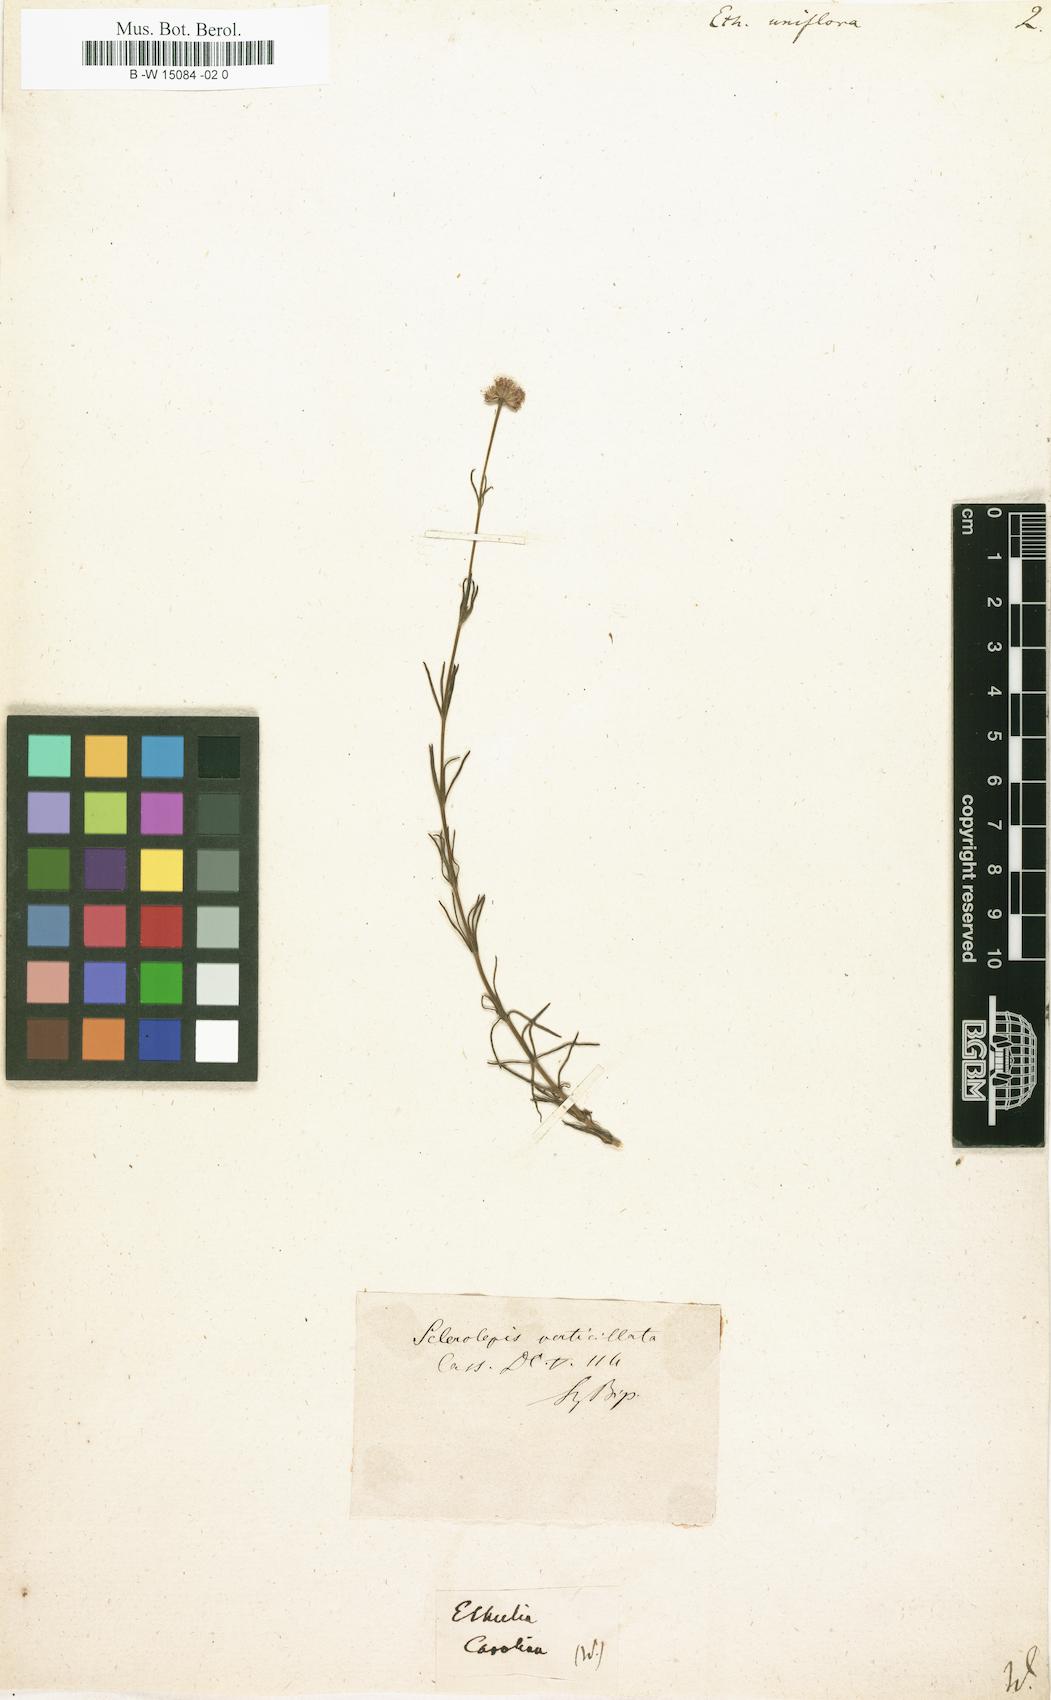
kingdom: Plantae
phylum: Tracheophyta
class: Magnoliopsida
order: Asterales
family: Asteraceae
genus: Sclerolepis
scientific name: Sclerolepis uniflora
